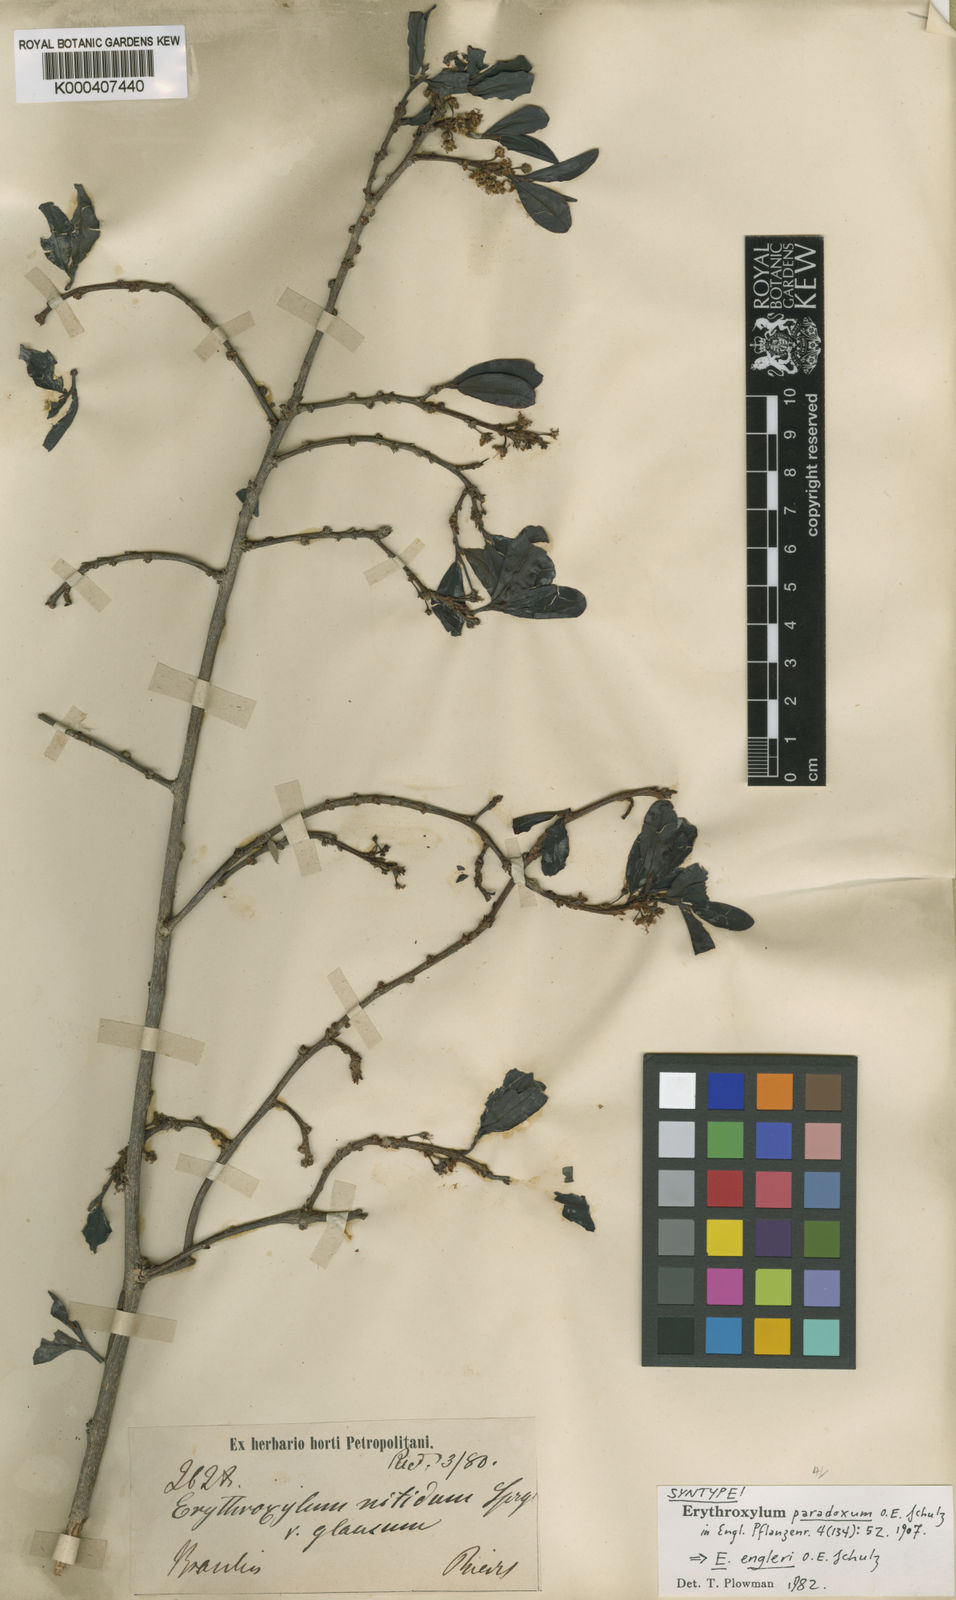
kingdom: Plantae
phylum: Tracheophyta
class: Magnoliopsida
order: Malpighiales
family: Erythroxylaceae
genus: Erythroxylum
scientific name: Erythroxylum engleri
